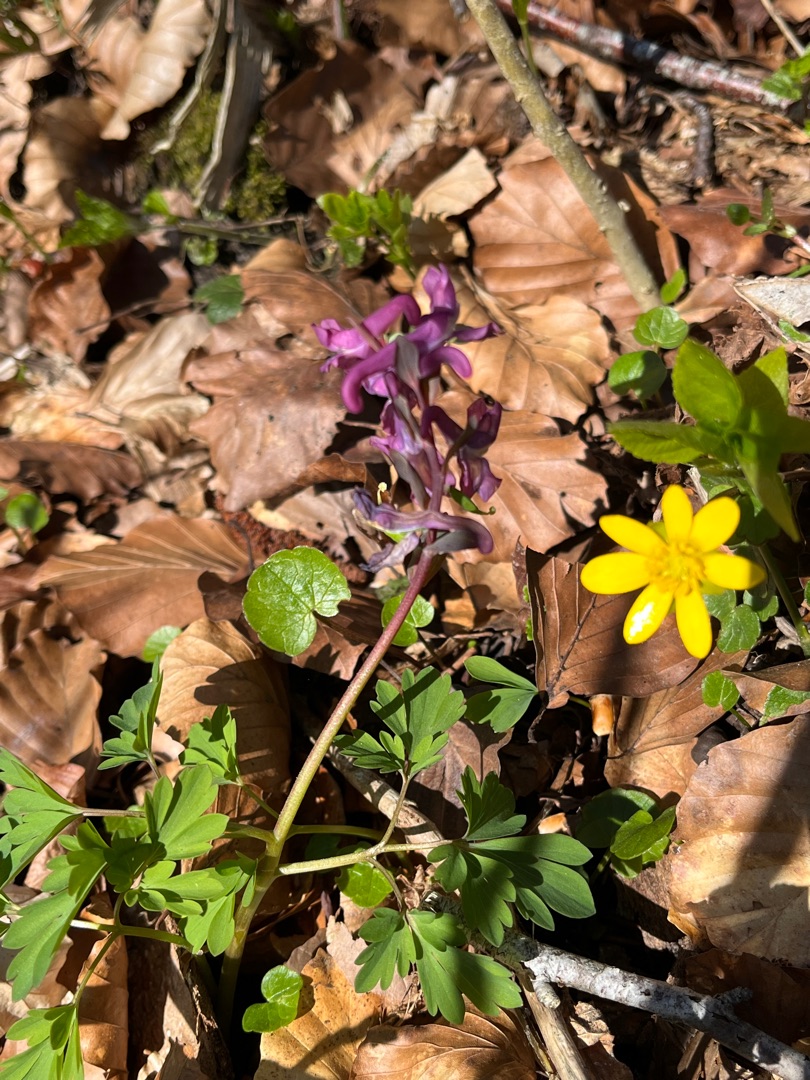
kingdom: Plantae
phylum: Tracheophyta
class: Magnoliopsida
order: Ranunculales
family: Papaveraceae
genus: Corydalis
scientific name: Corydalis cava
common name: Hulrodet lærkespore
